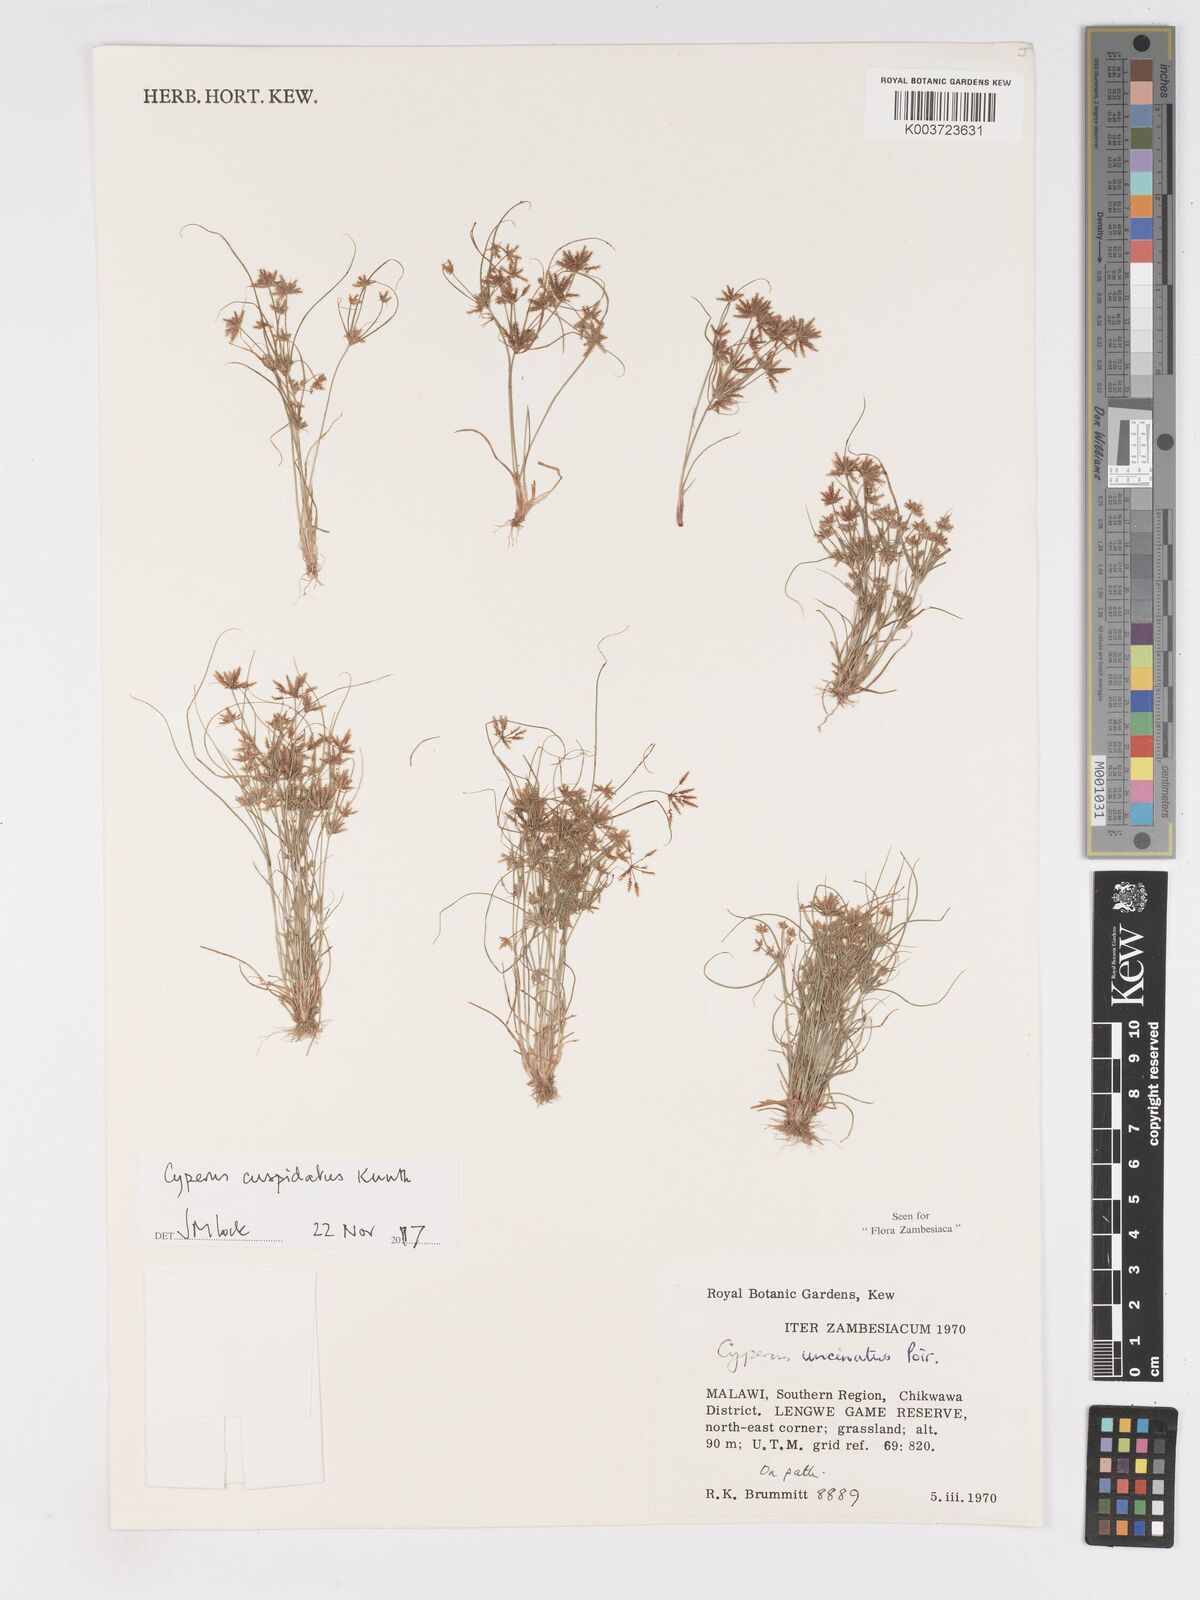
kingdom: Plantae
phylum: Tracheophyta
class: Liliopsida
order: Poales
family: Cyperaceae
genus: Cyperus
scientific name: Cyperus cuspidatus
